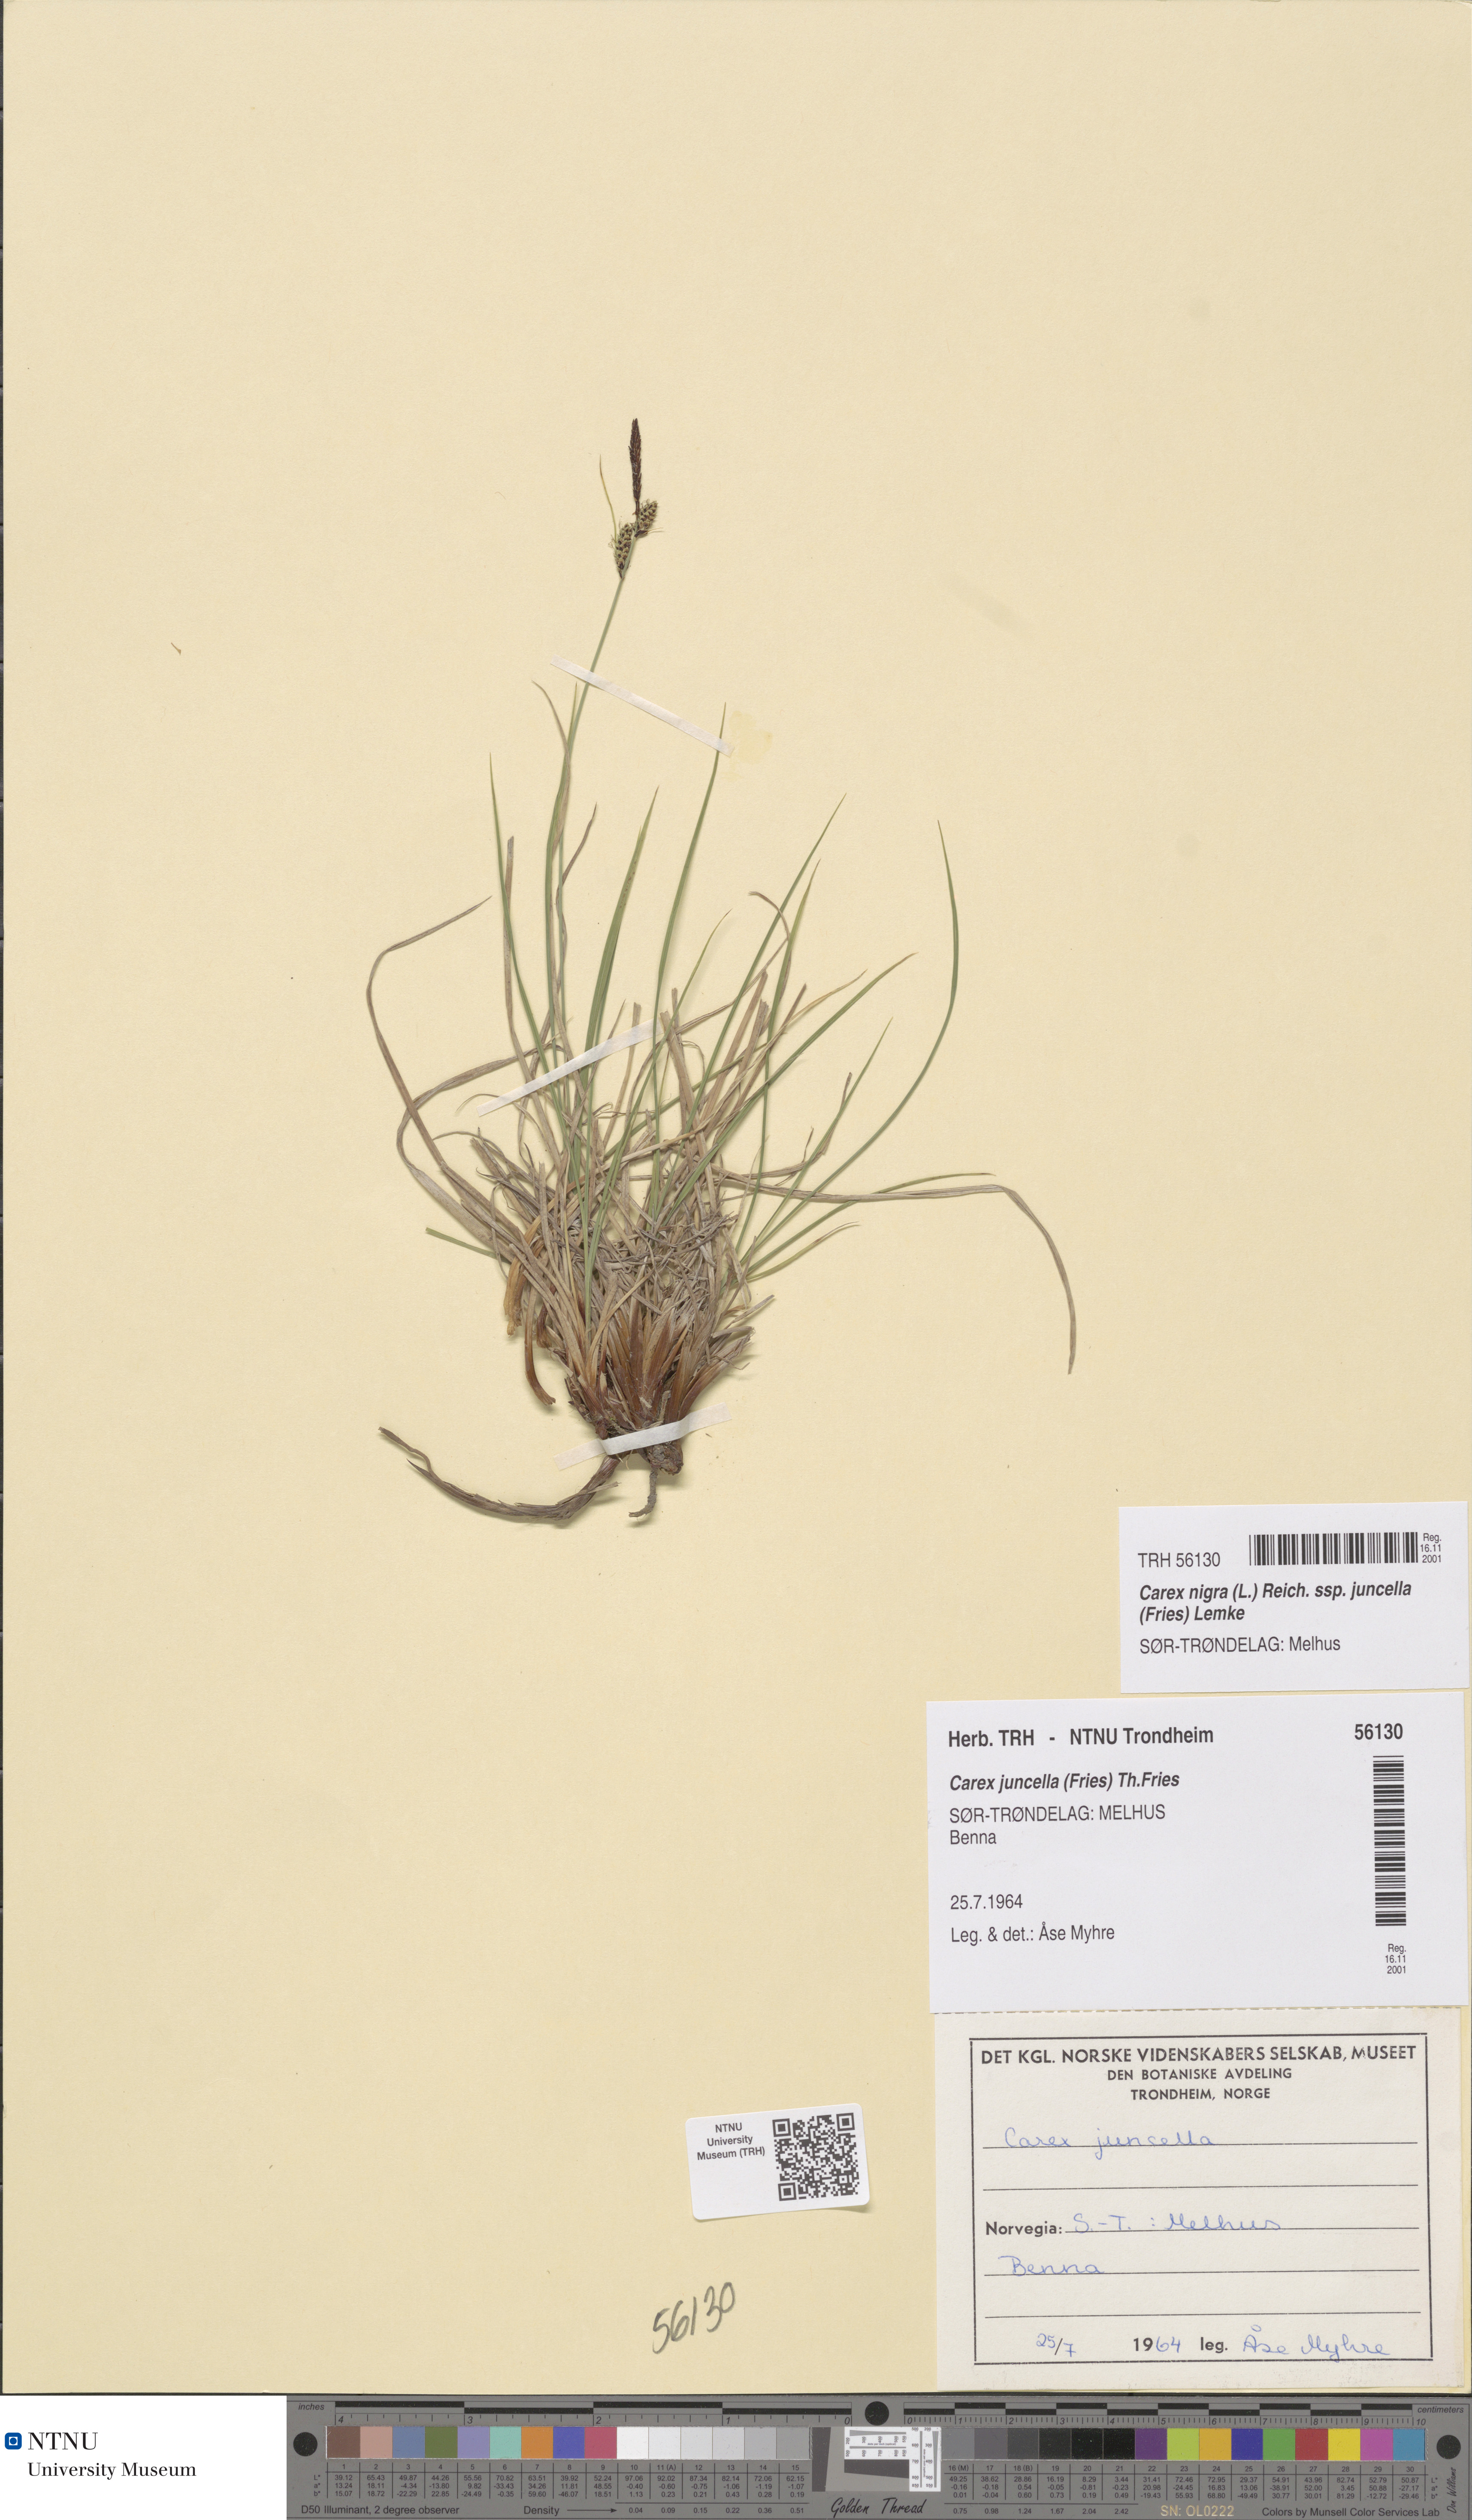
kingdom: Plantae
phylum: Tracheophyta
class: Liliopsida
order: Poales
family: Cyperaceae
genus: Carex
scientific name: Carex nigra
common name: Common sedge
